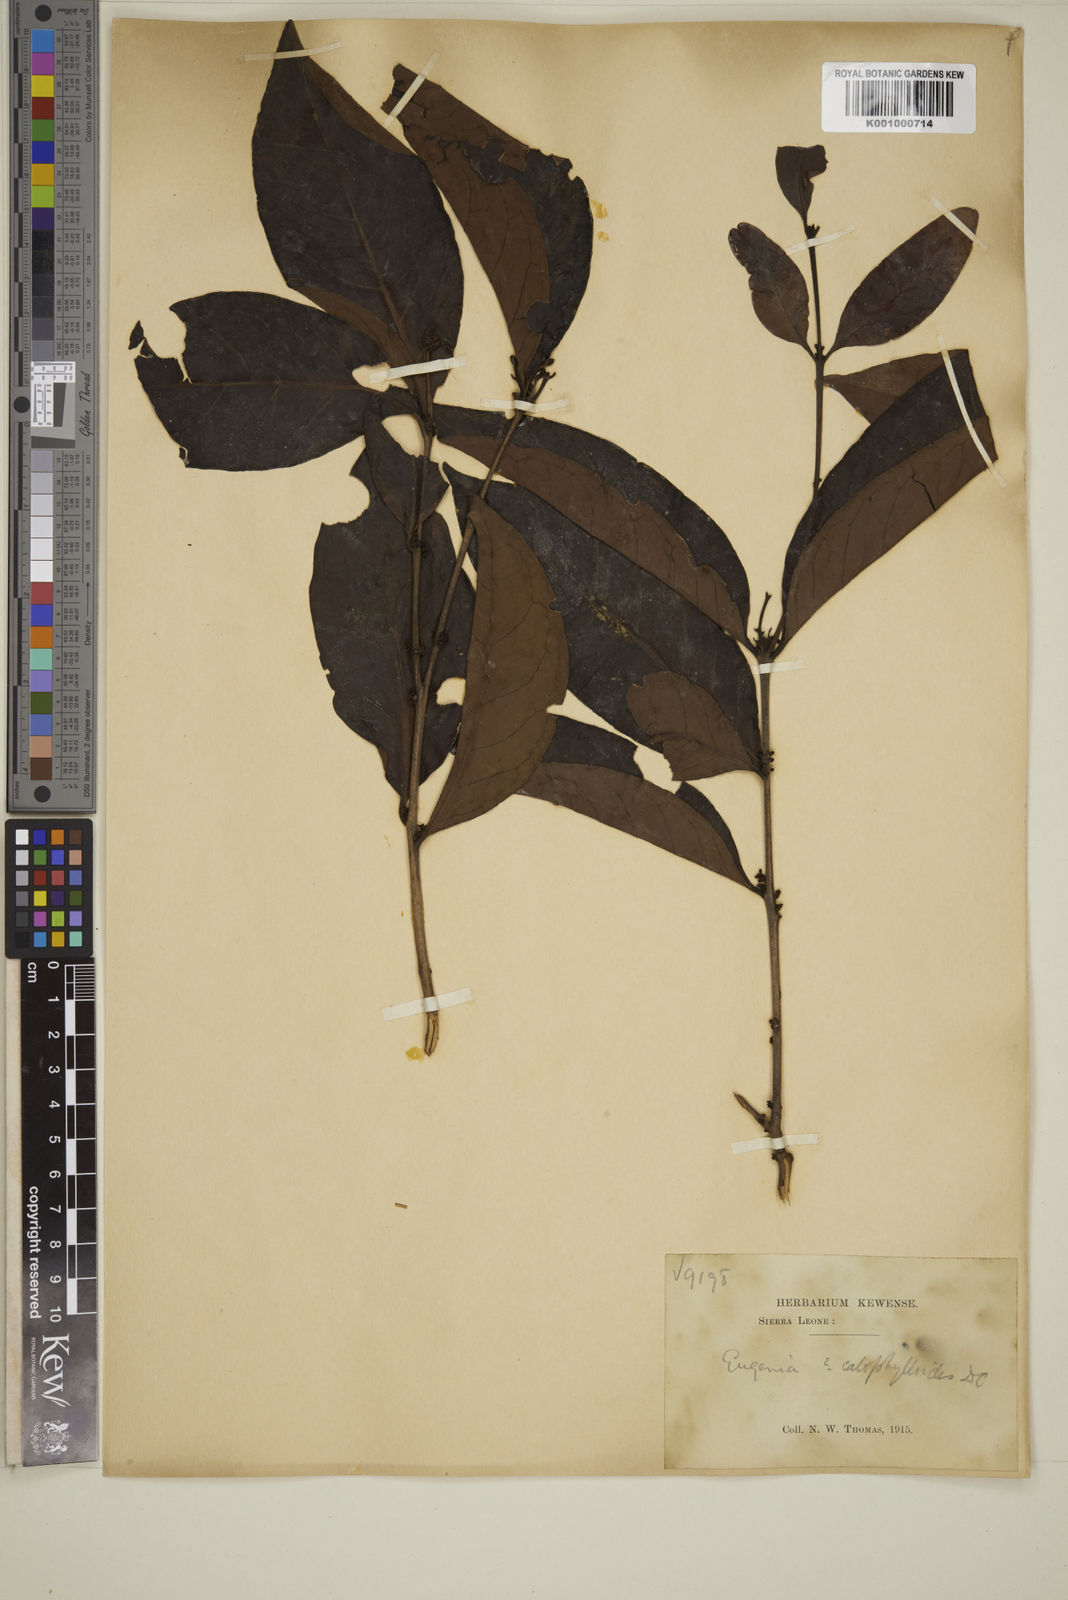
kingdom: Plantae
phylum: Tracheophyta
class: Magnoliopsida
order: Myrtales
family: Myrtaceae
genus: Eugenia
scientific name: Eugenia calophylloides
